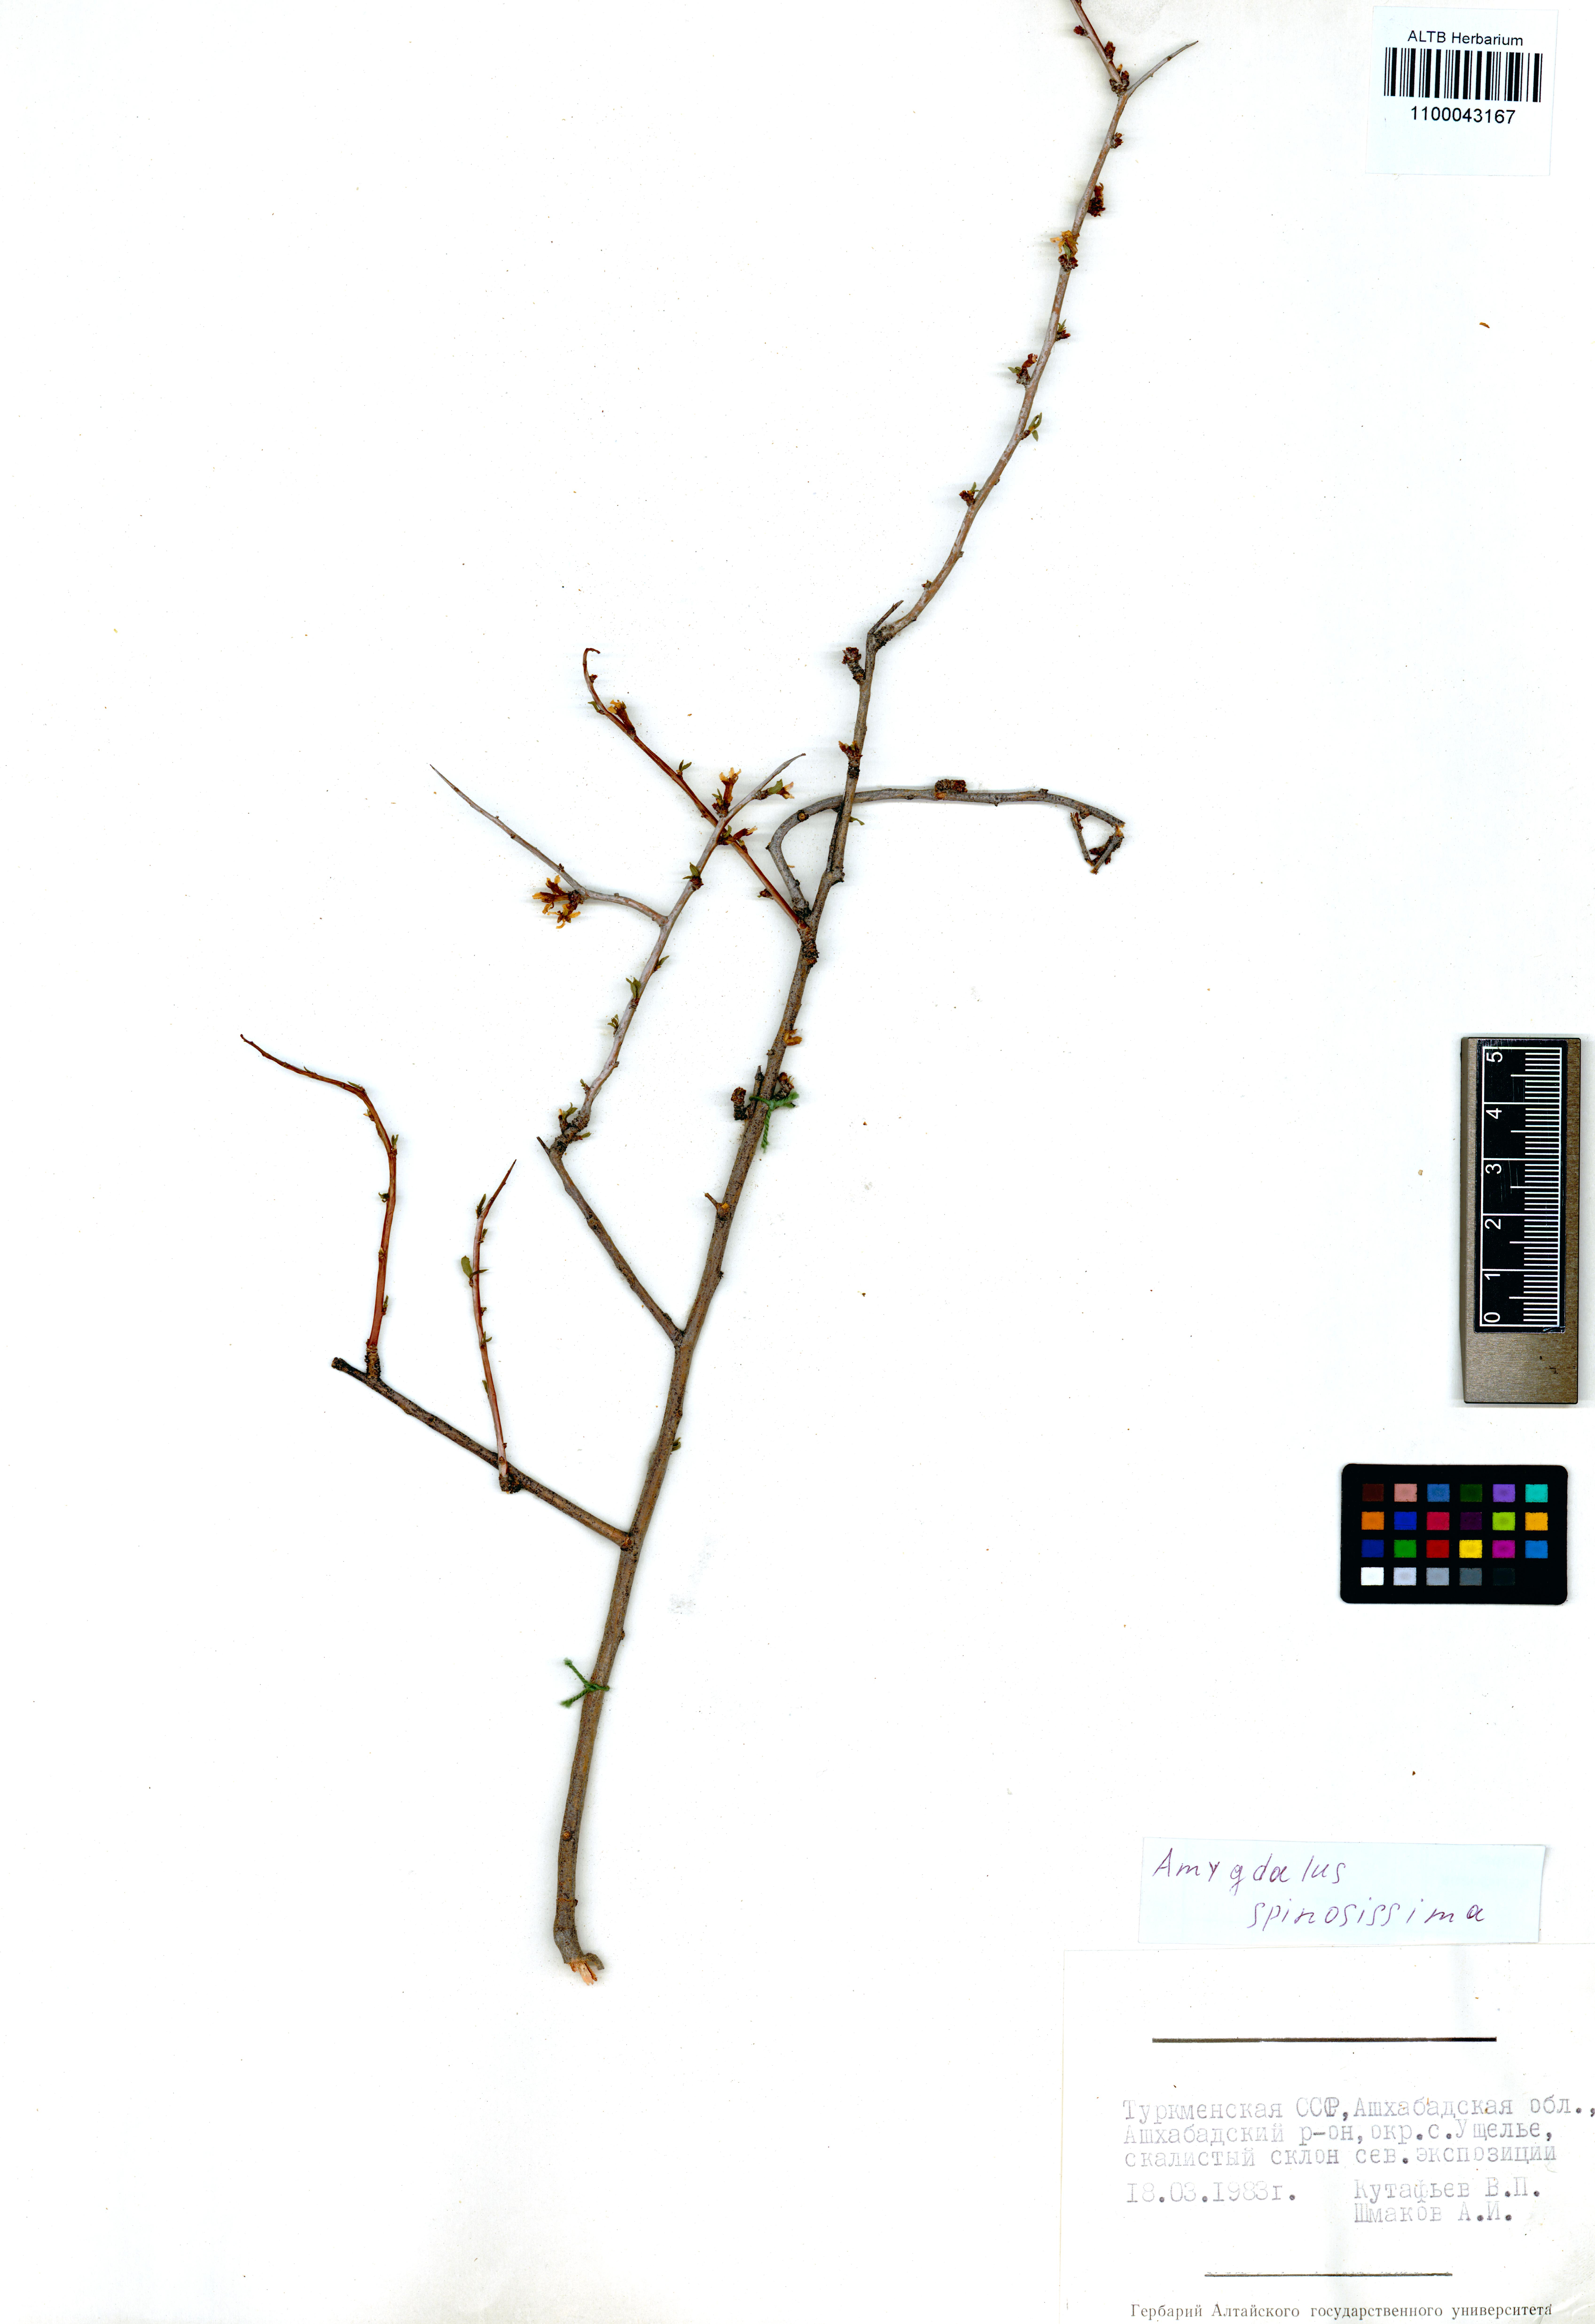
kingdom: Plantae
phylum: Tracheophyta
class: Magnoliopsida
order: Rosales
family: Rosaceae
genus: Prunus
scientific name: Prunus spinosissima
